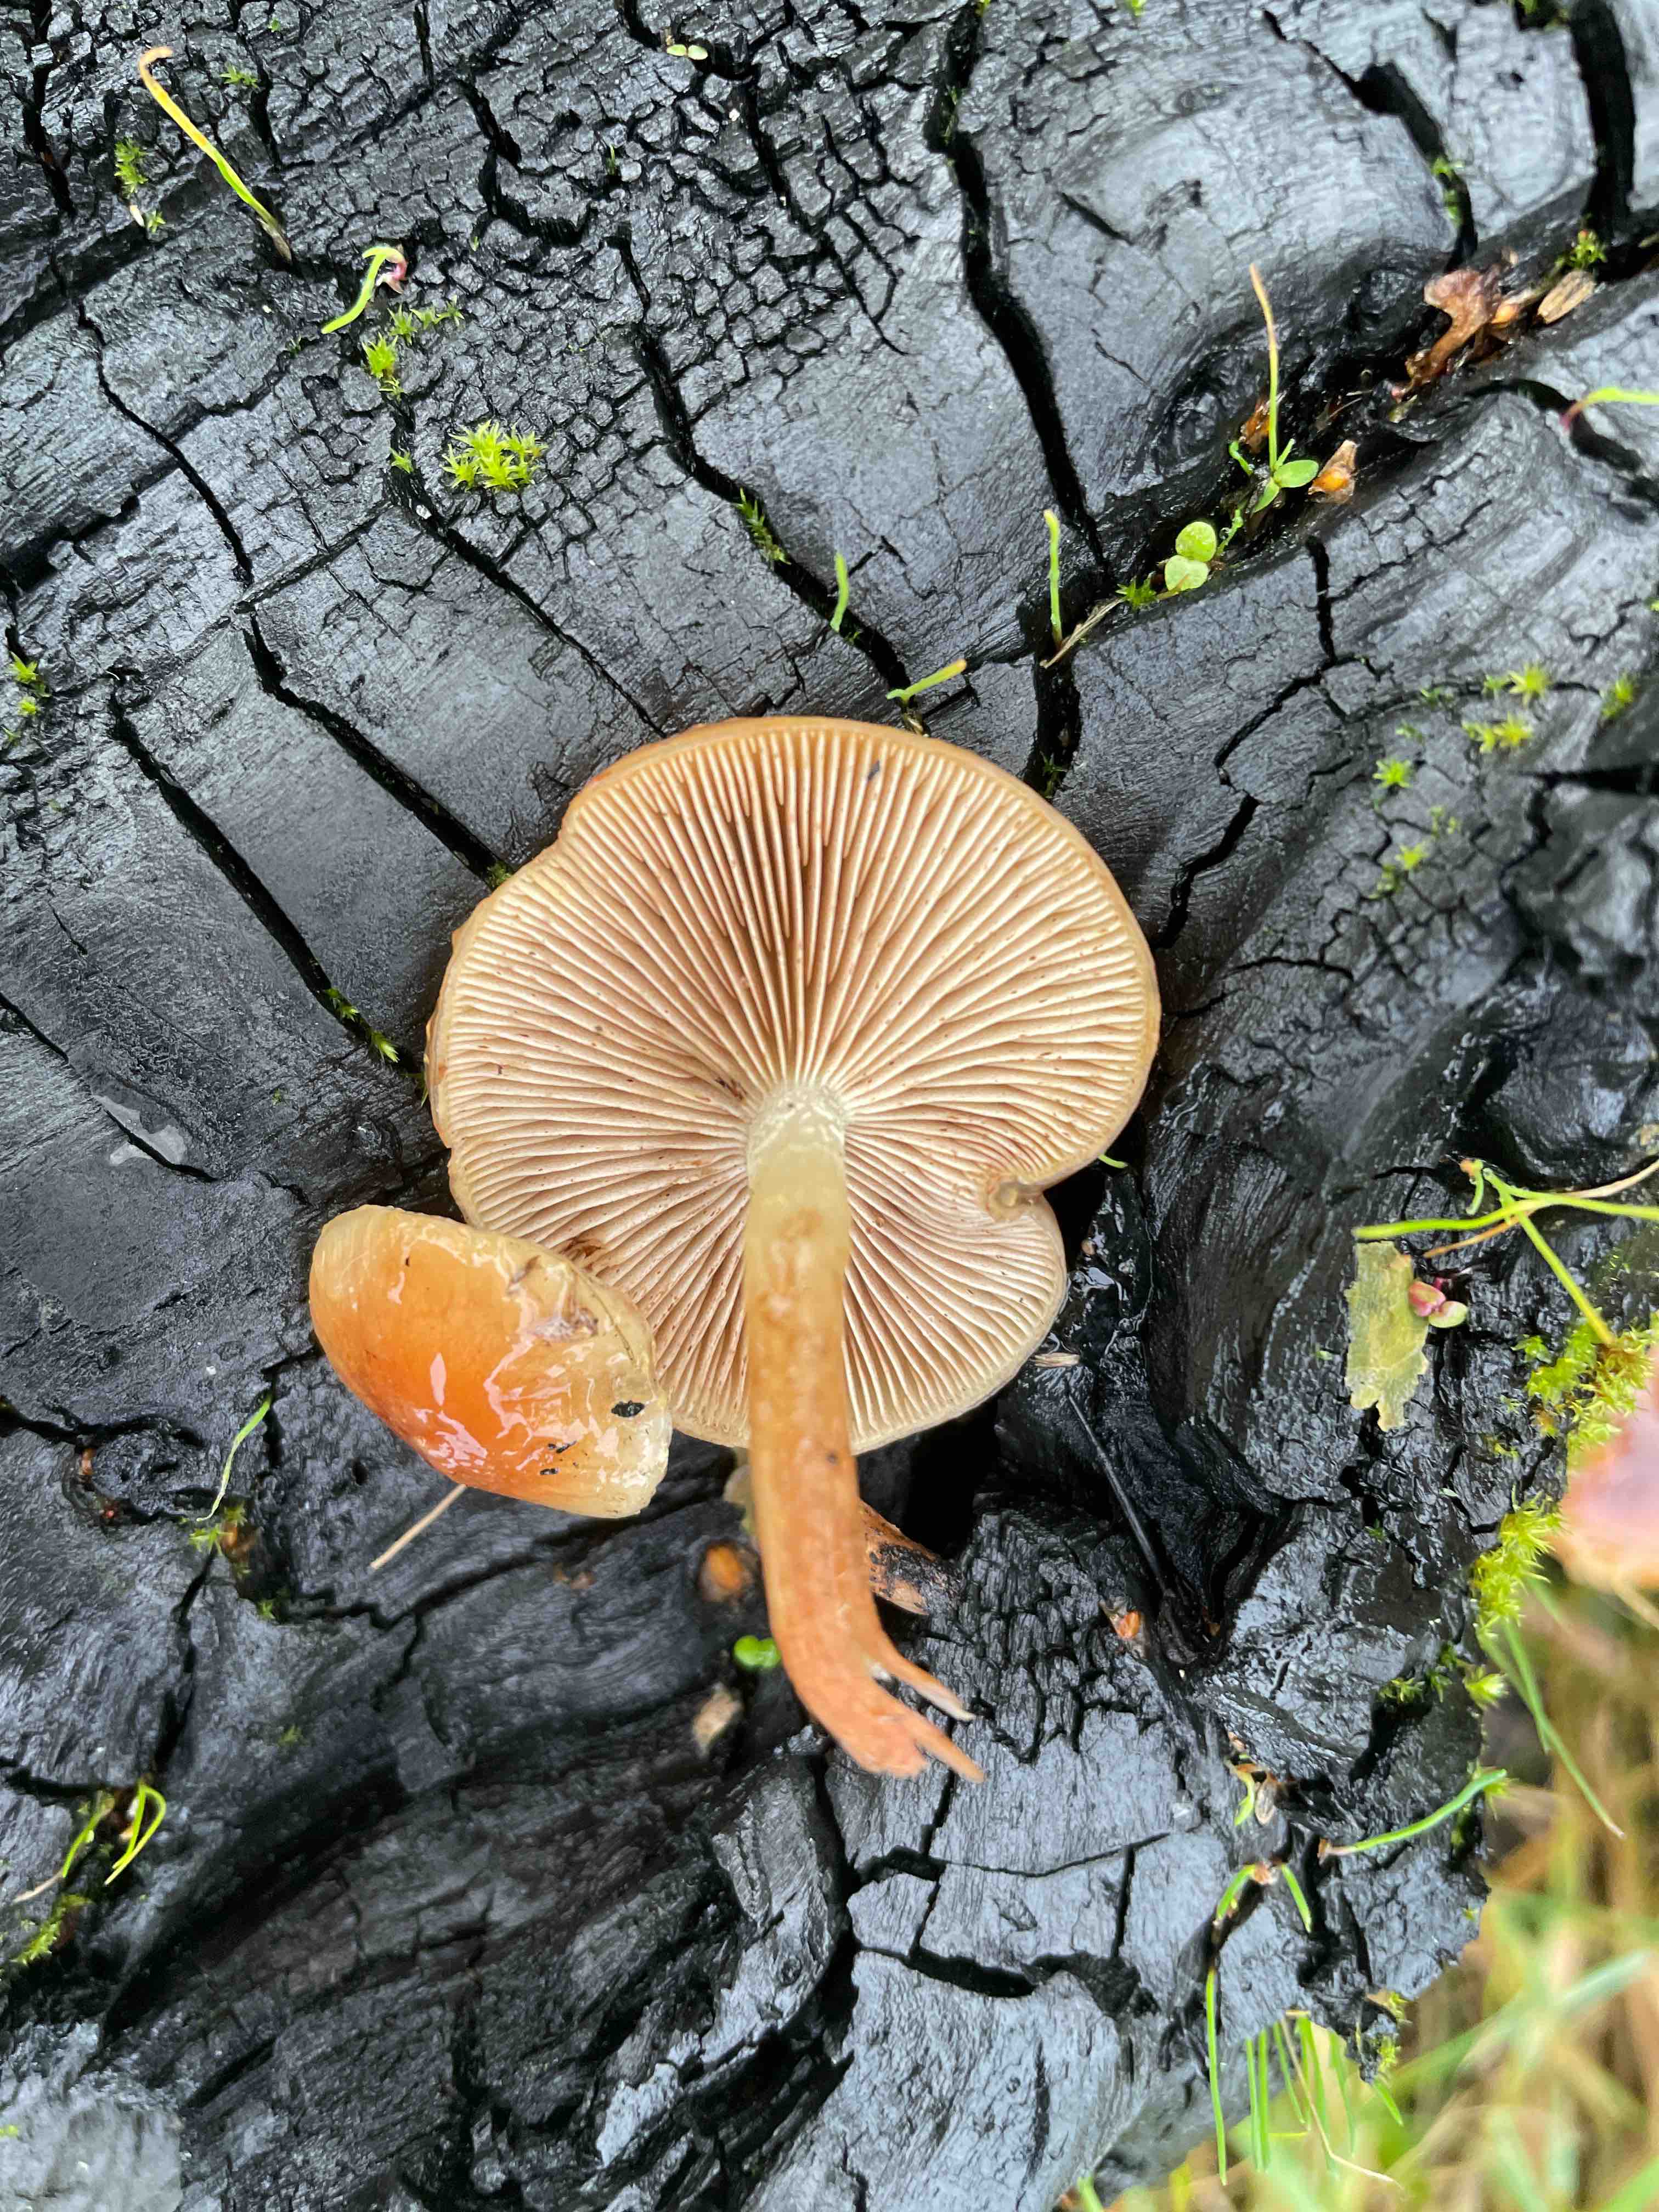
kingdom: Fungi
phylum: Basidiomycota
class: Agaricomycetes
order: Agaricales
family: Physalacriaceae
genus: Flammulina
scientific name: Flammulina
